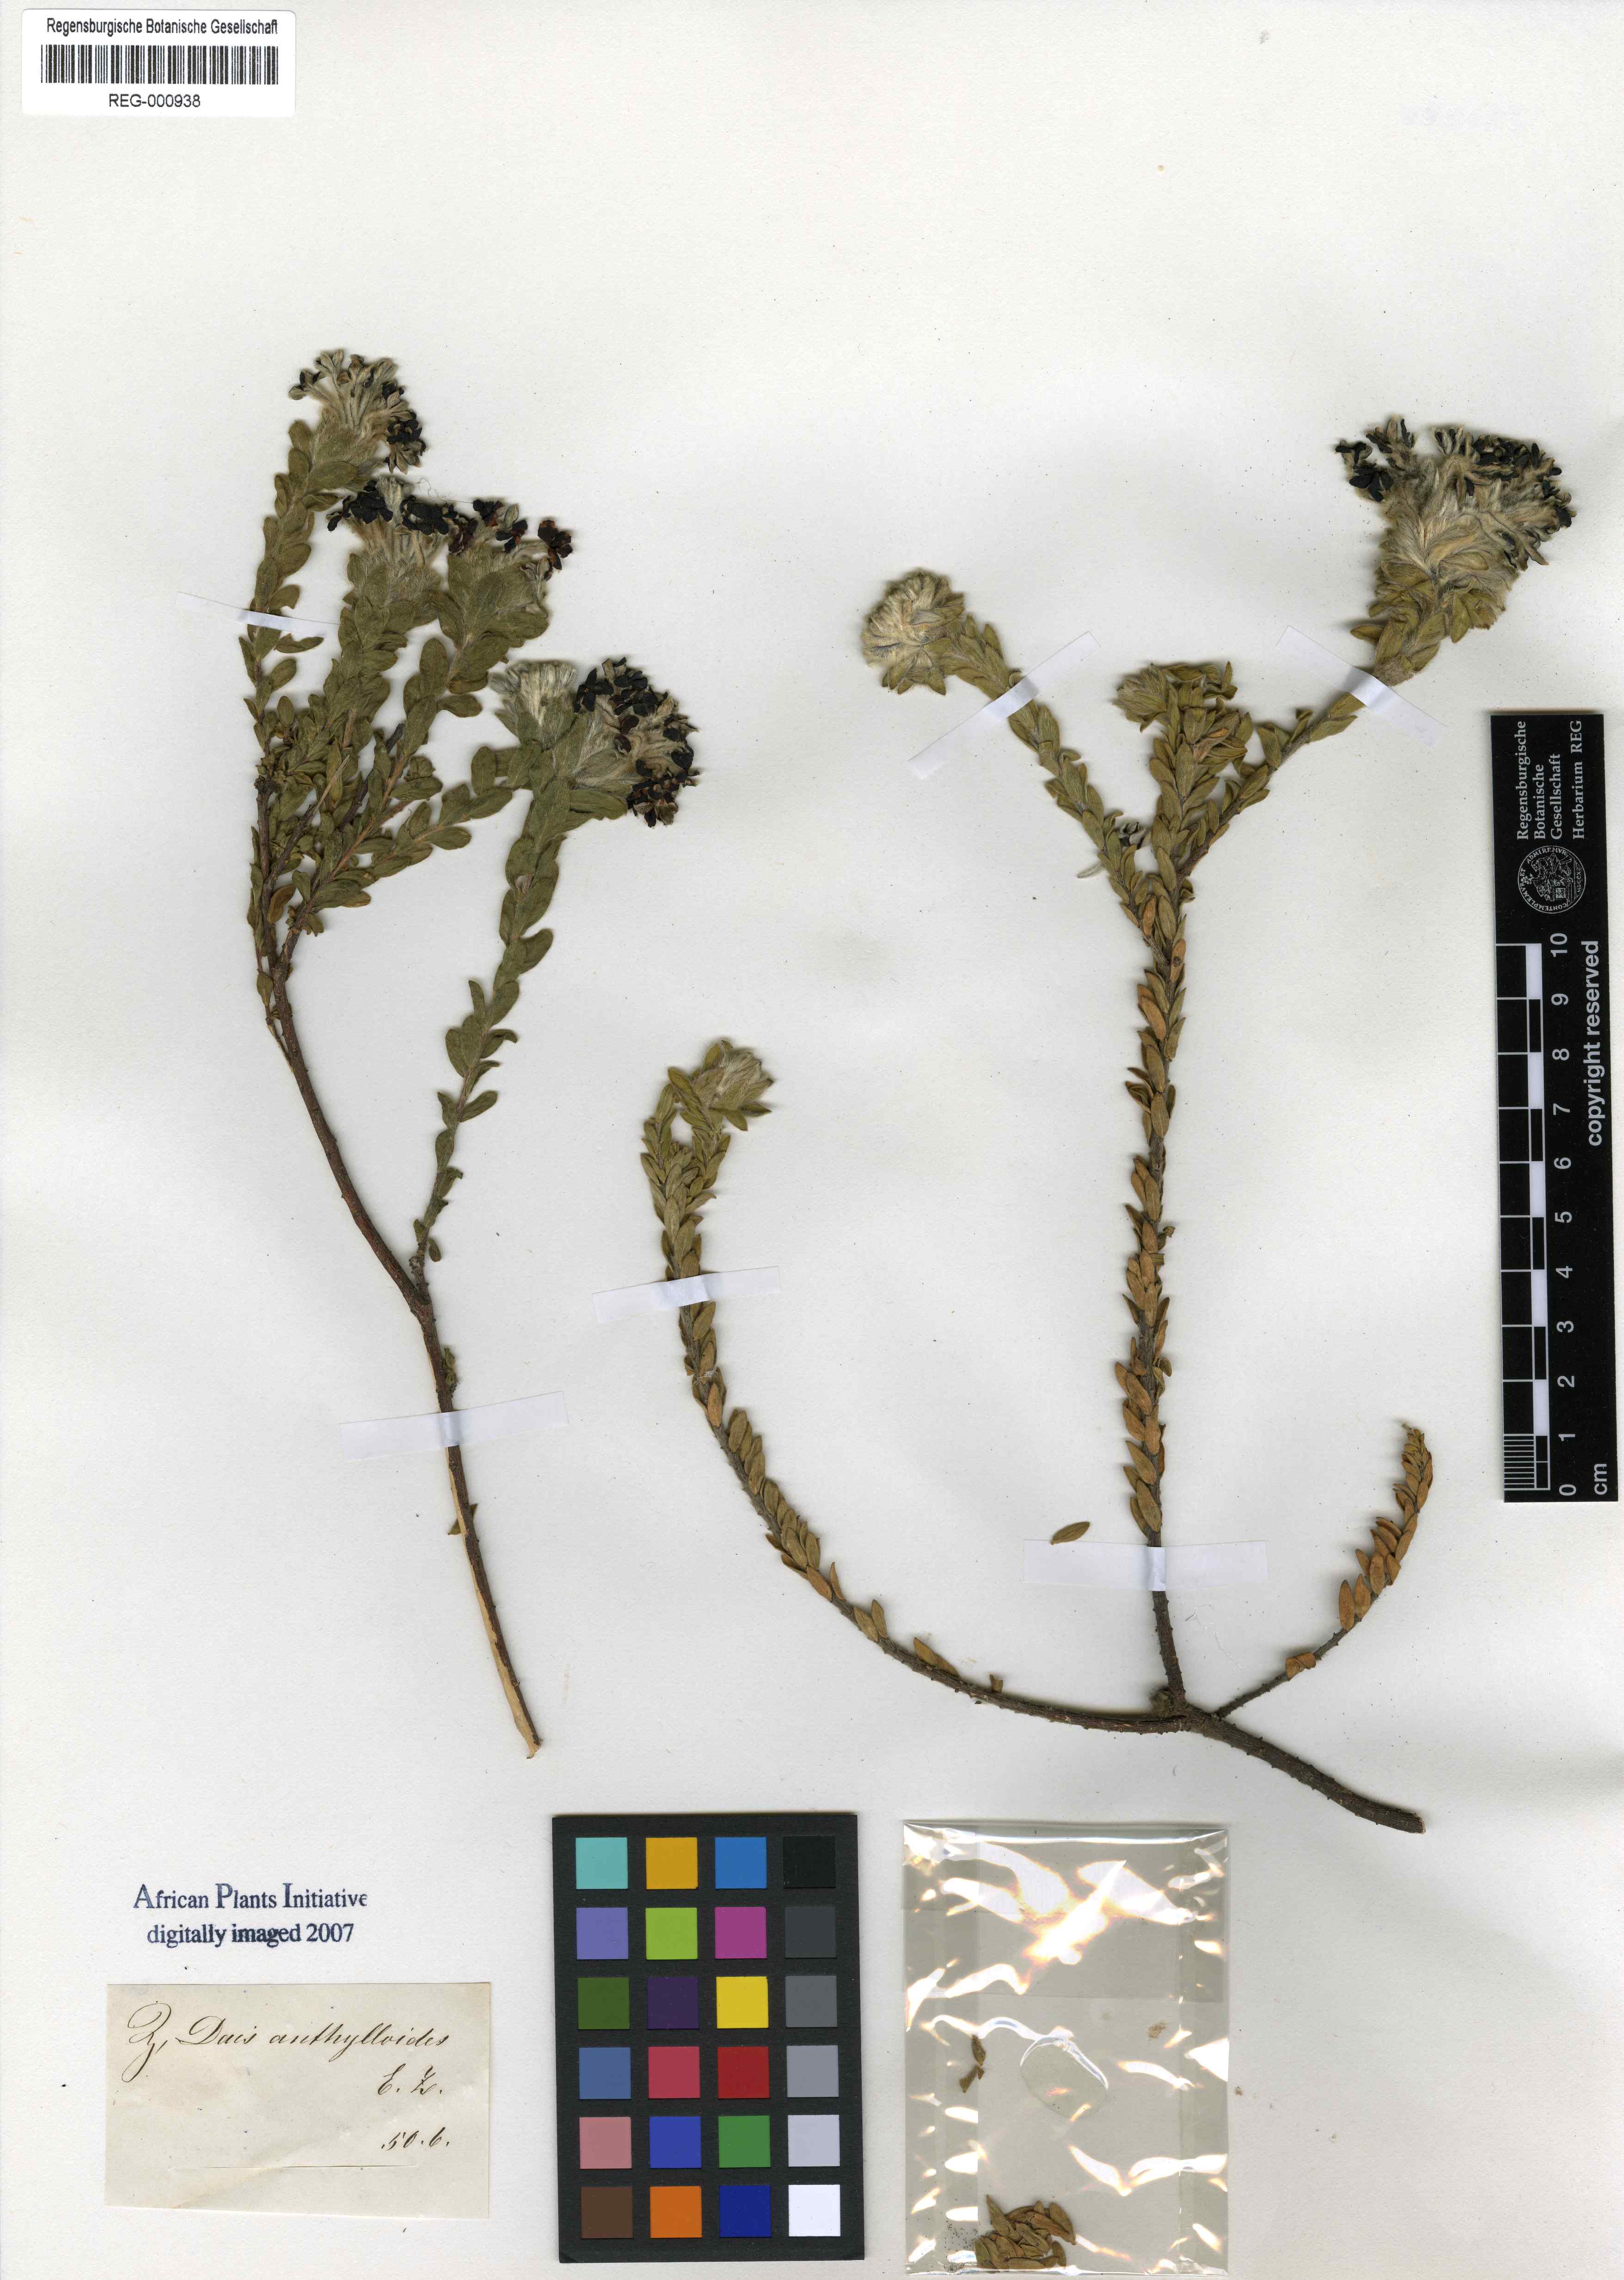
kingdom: Plantae
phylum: Tracheophyta
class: Magnoliopsida
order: Malvales
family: Thymelaeaceae
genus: Gnidia
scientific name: Gnidia anthylloides
